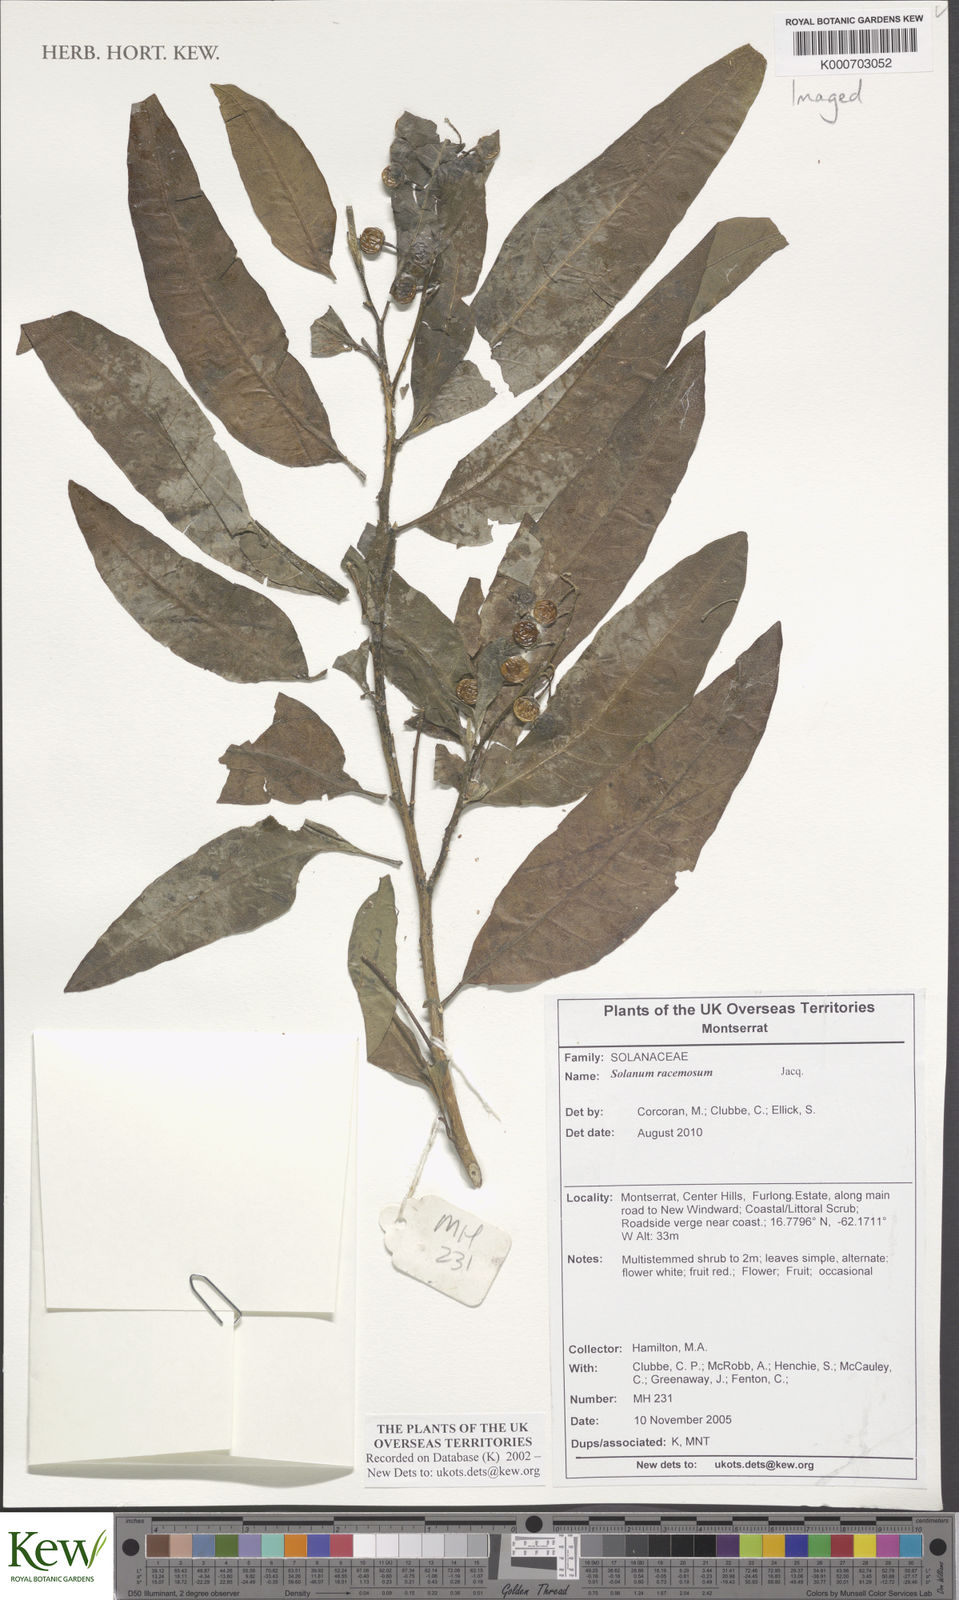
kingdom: Plantae
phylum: Tracheophyta
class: Magnoliopsida
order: Solanales
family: Solanaceae
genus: Solanum
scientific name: Solanum bahamense
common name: Canker-berry
